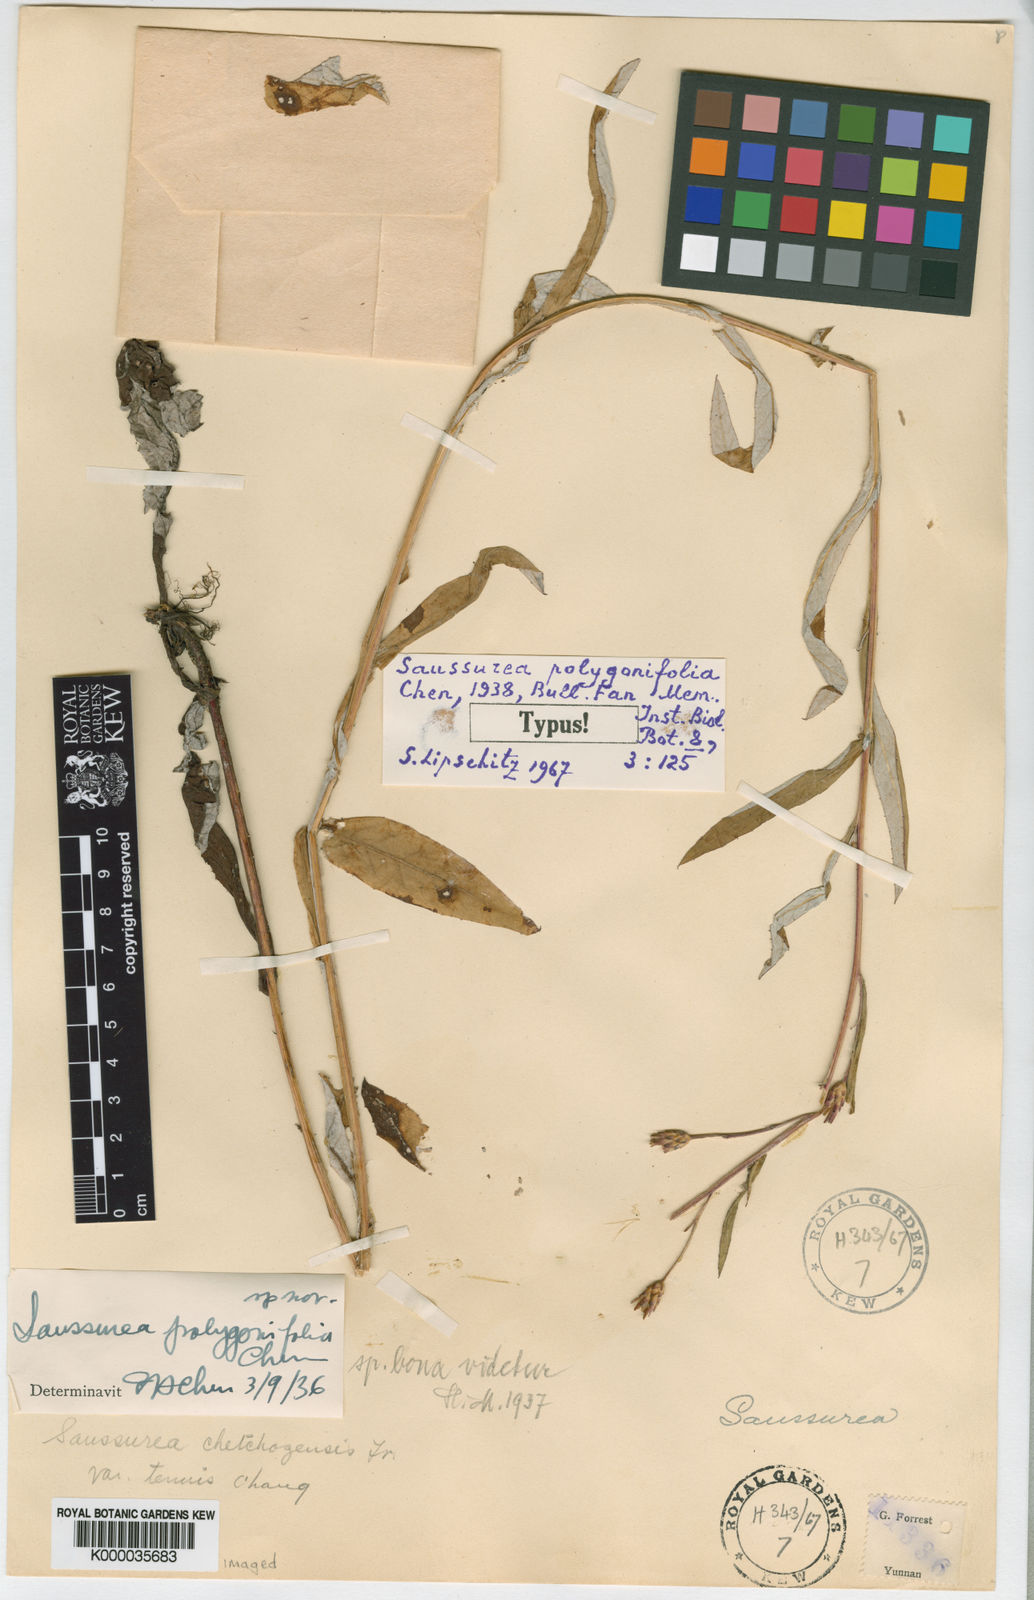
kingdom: Plantae
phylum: Tracheophyta
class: Magnoliopsida
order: Asterales
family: Asteraceae
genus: Saussurea
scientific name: Saussurea polygonifolia
